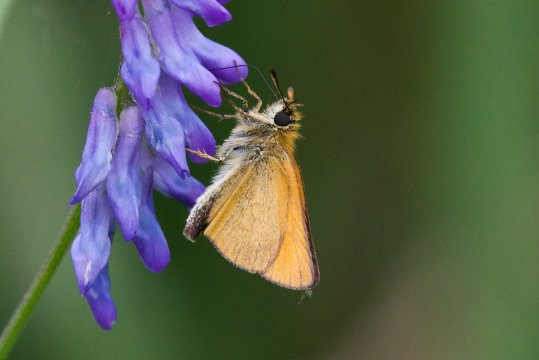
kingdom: Animalia
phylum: Arthropoda
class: Insecta
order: Lepidoptera
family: Hesperiidae
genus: Thymelicus
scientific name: Thymelicus lineola
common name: European Skipper
